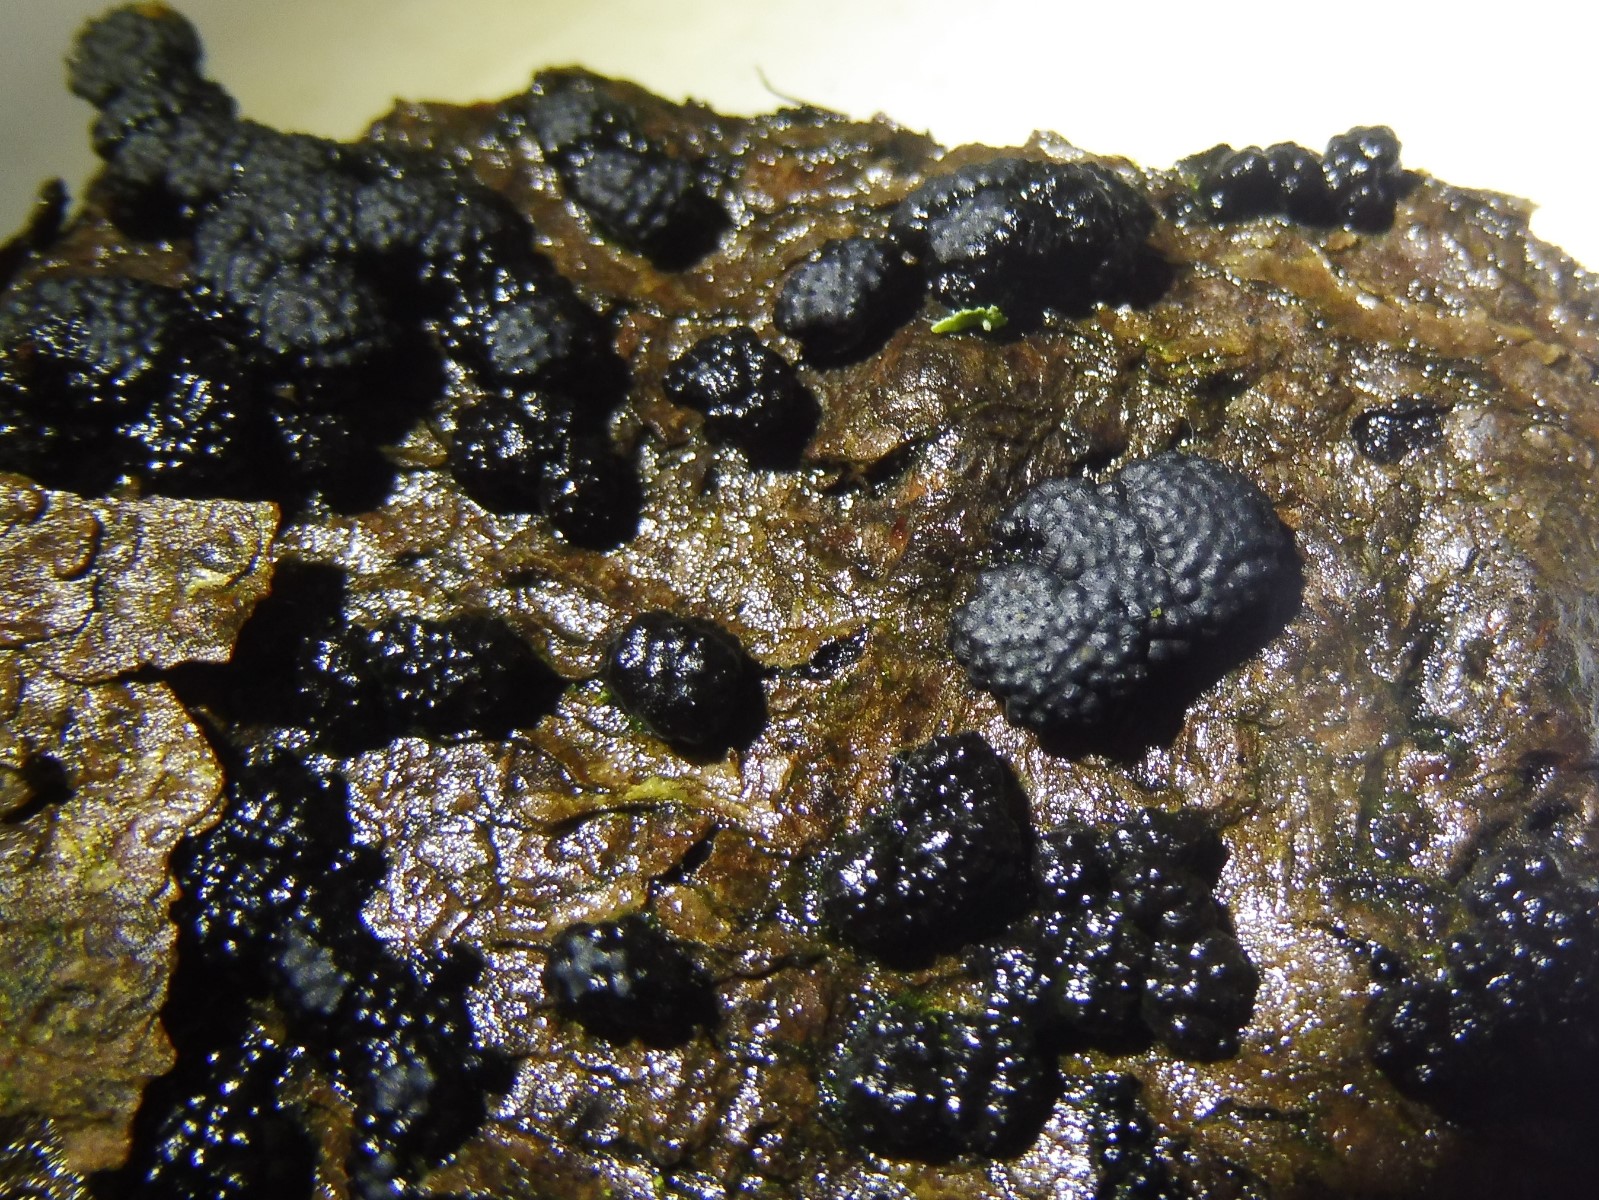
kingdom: Fungi
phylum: Ascomycota
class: Sordariomycetes
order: Xylariales
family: Hypoxylaceae
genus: Jackrogersella
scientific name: Jackrogersella cohaerens
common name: sammenflydende kulbær
